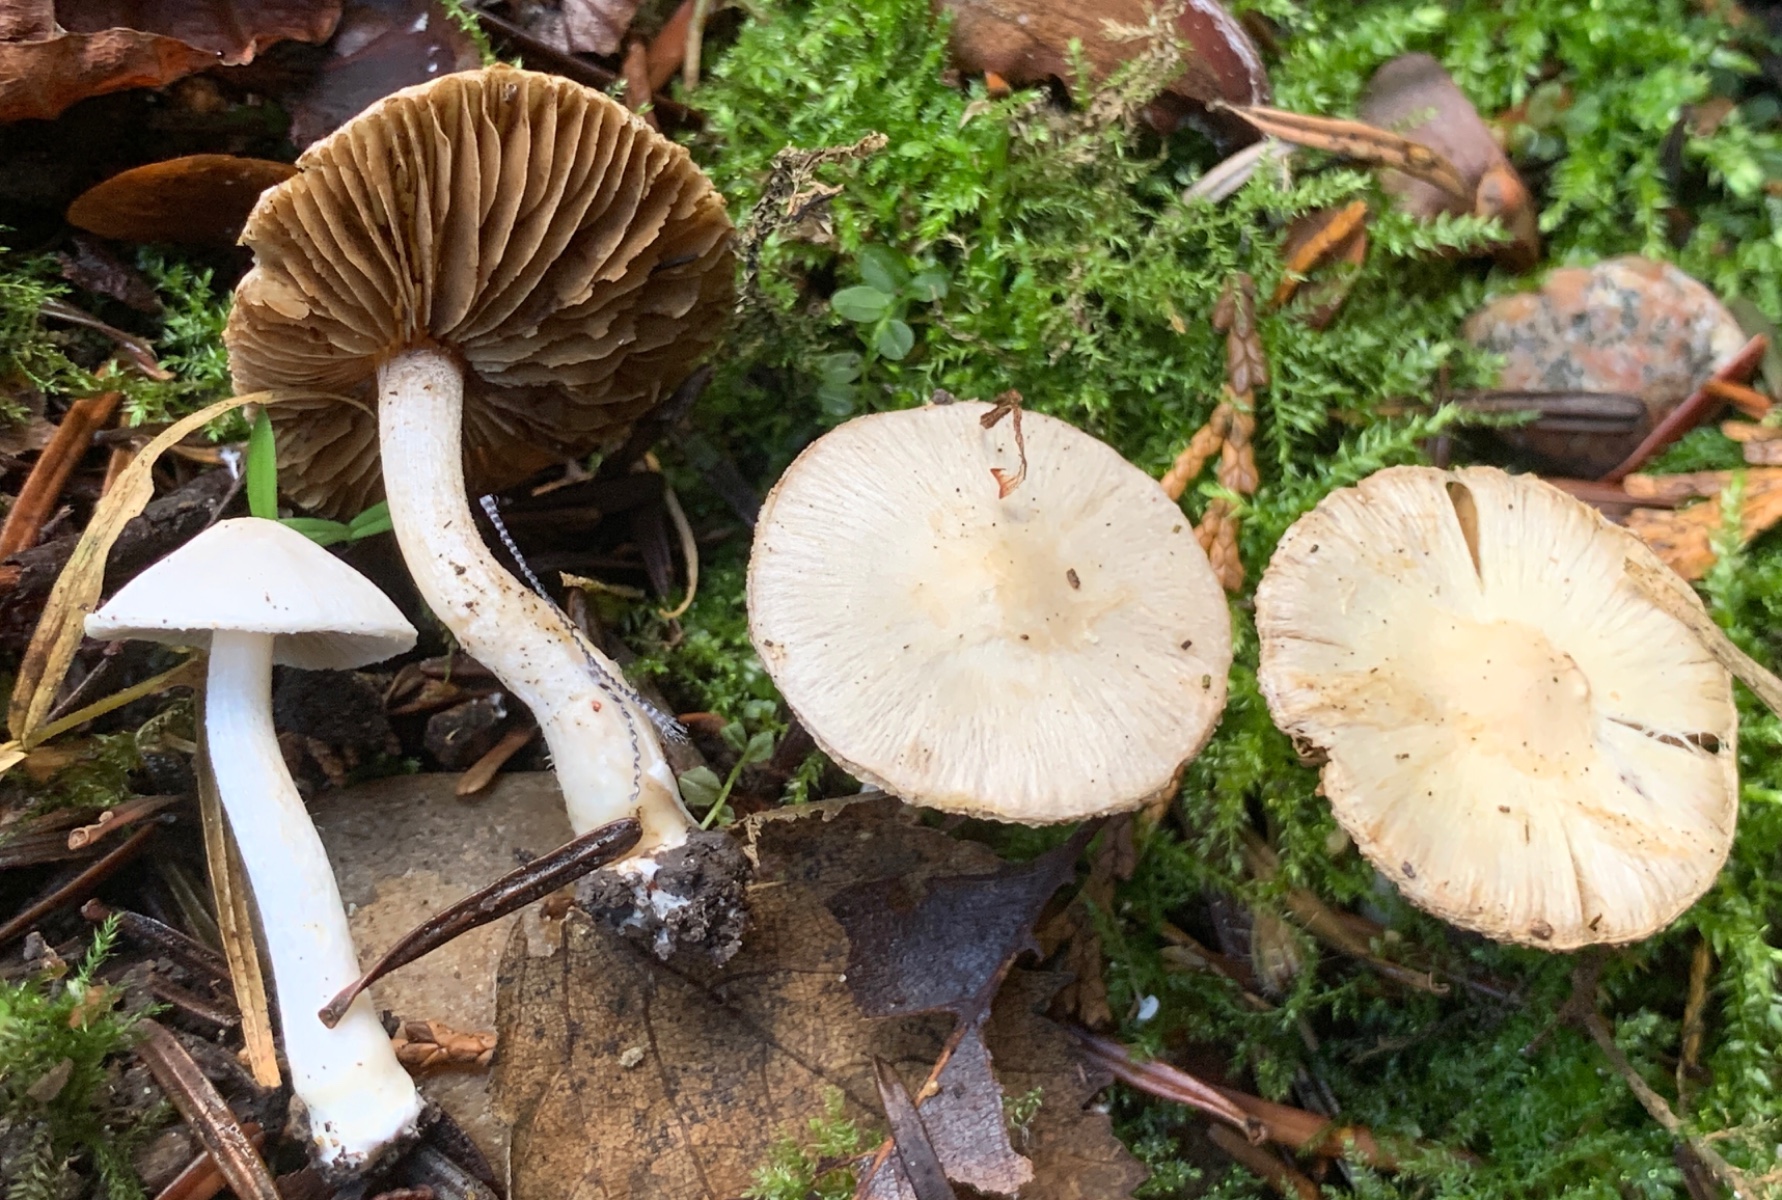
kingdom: Fungi
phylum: Basidiomycota
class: Agaricomycetes
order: Agaricales
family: Inocybaceae
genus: Inocybe
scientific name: Inocybe
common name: almindelig trævlhat
